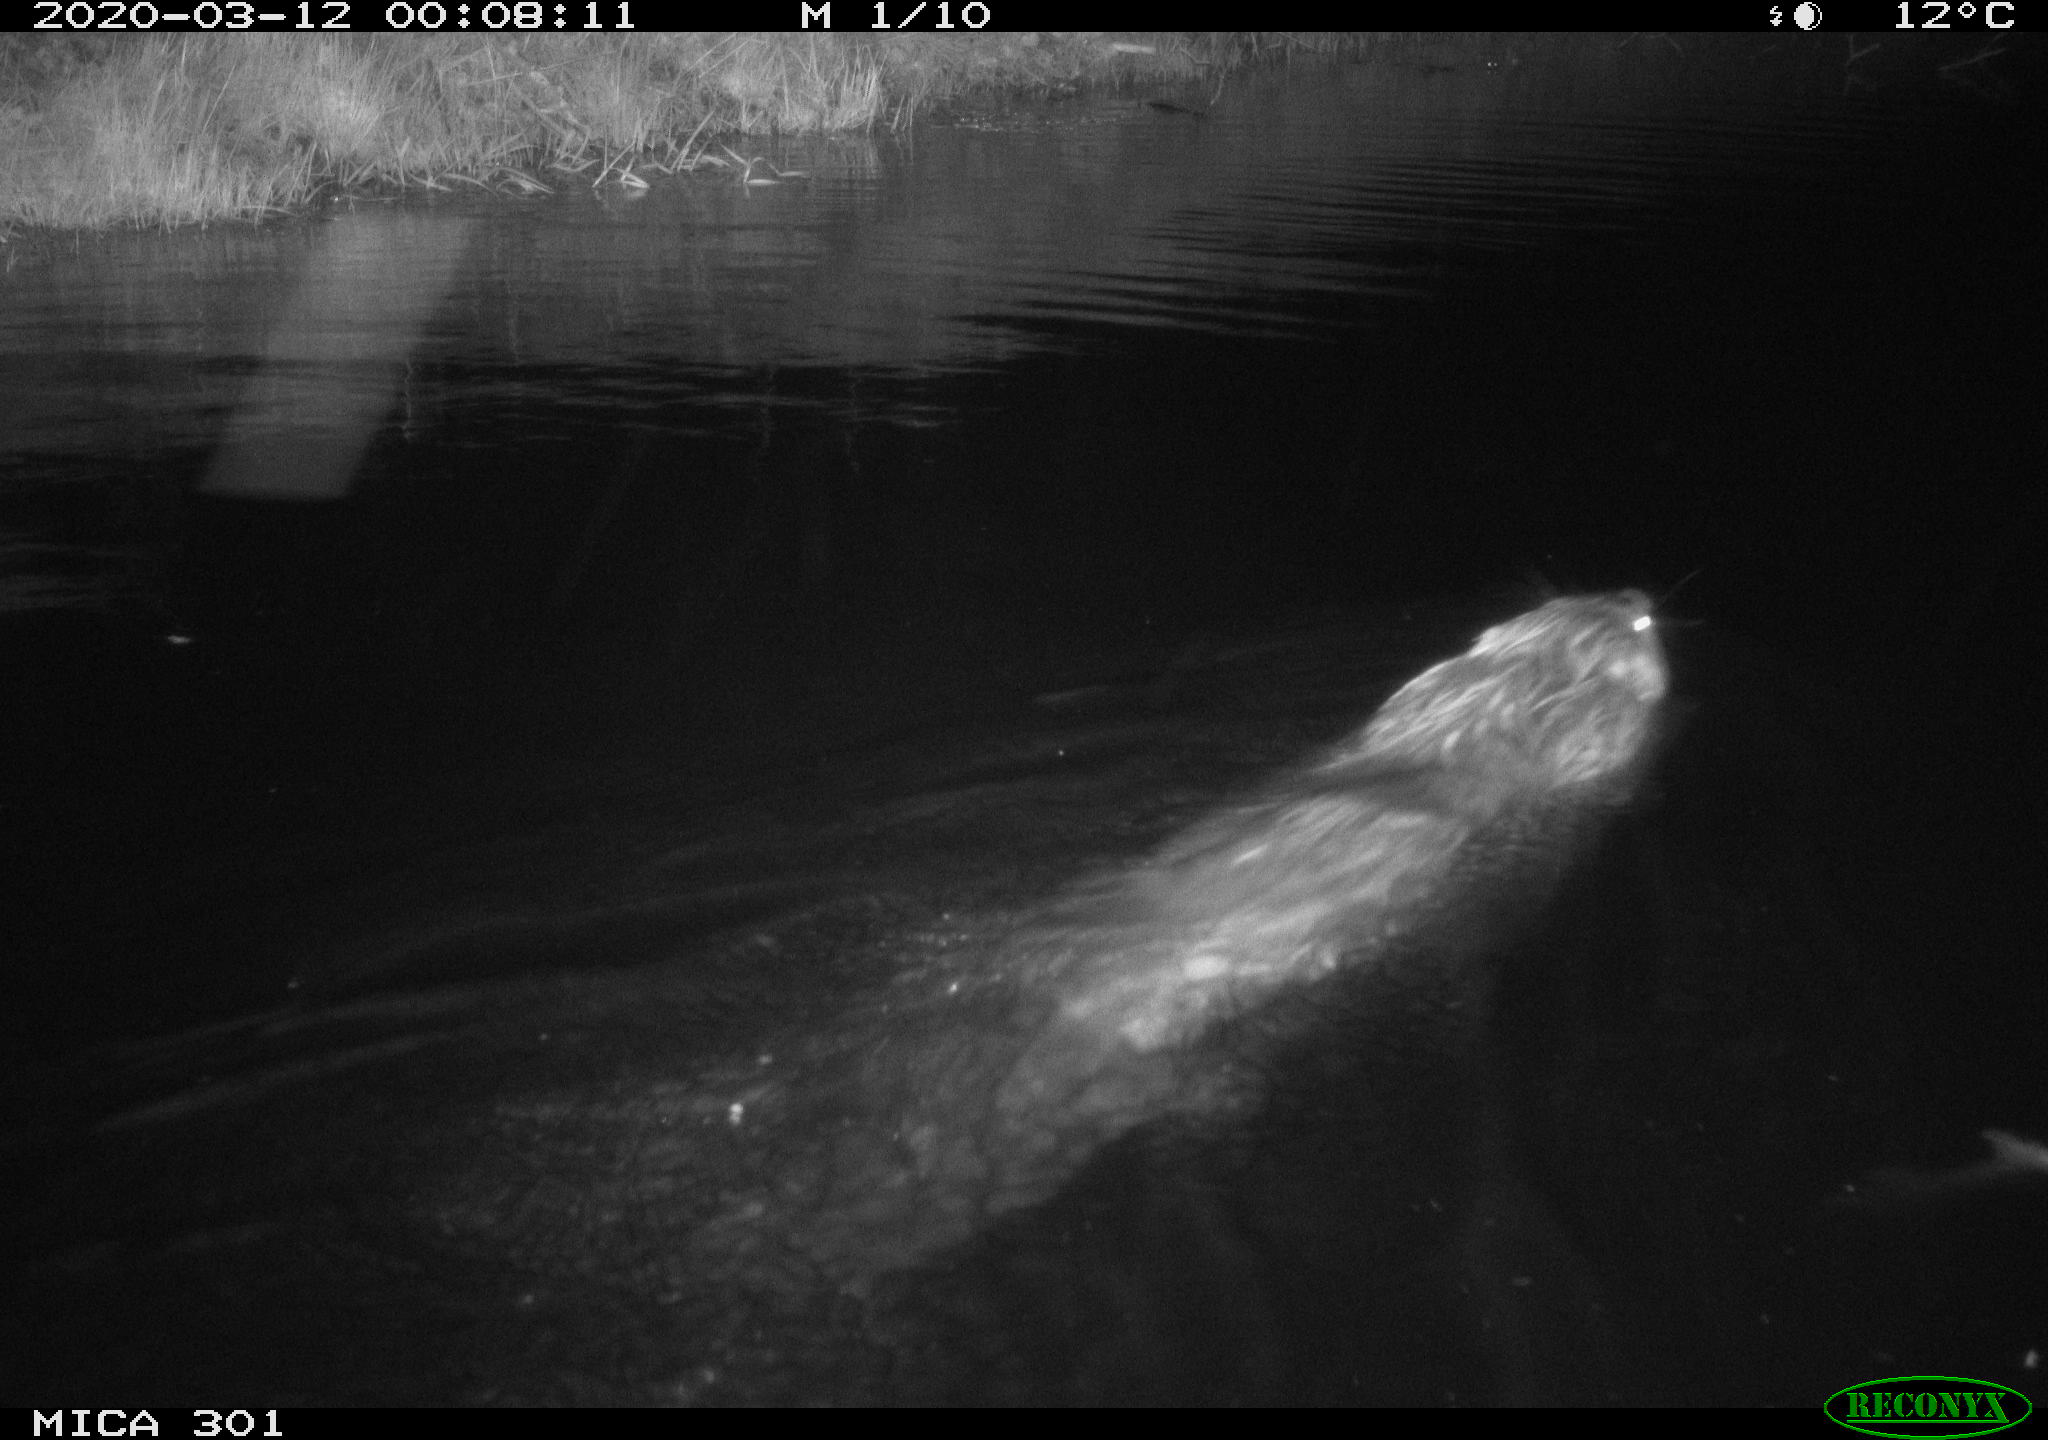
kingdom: Animalia
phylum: Chordata
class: Mammalia
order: Rodentia
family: Castoridae
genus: Castor
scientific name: Castor fiber
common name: Eurasian beaver
